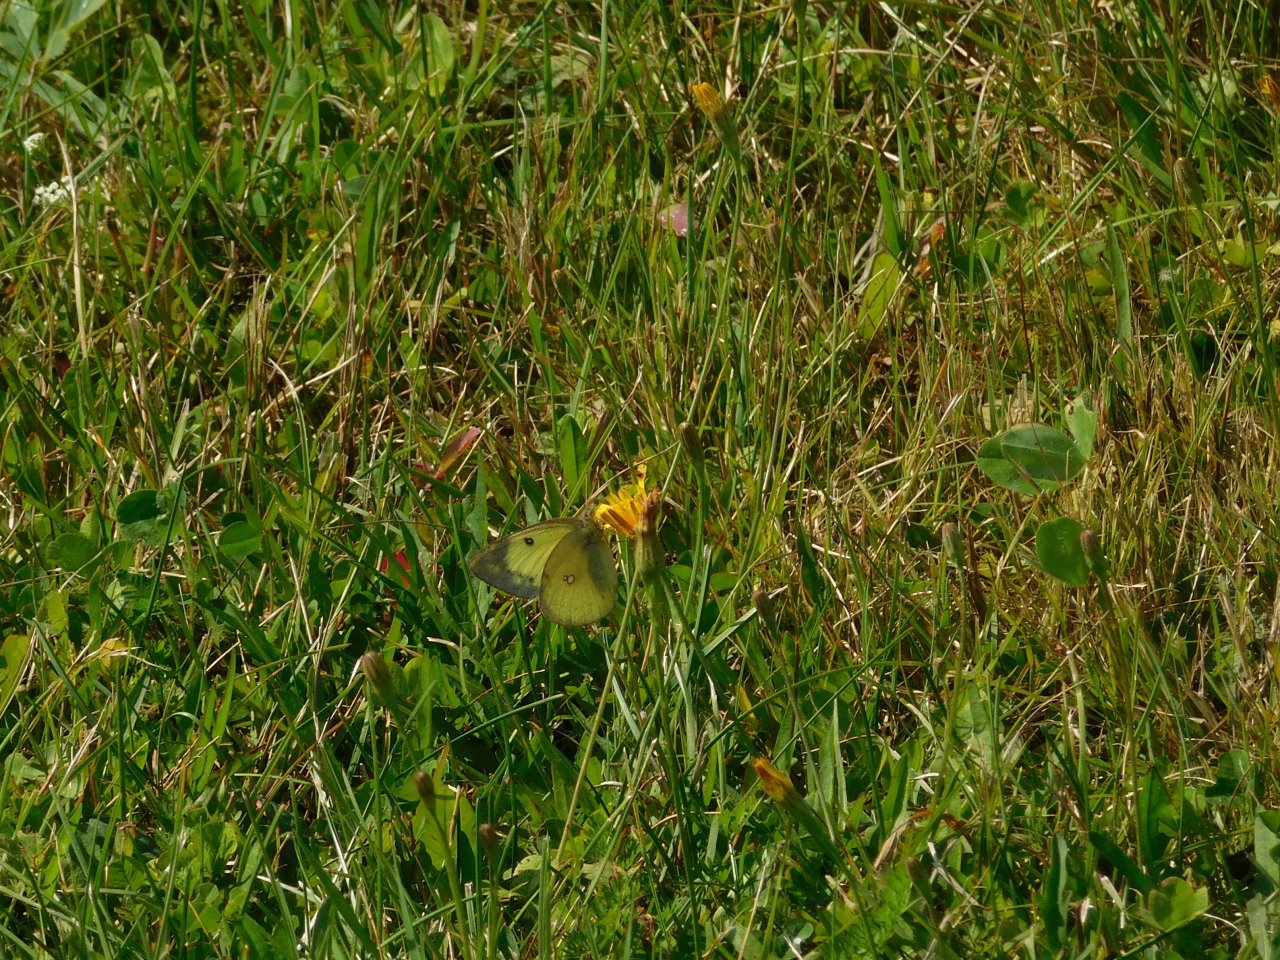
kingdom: Animalia
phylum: Arthropoda
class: Insecta
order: Lepidoptera
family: Pieridae
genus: Colias
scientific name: Colias philodice
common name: Clouded Sulphur
